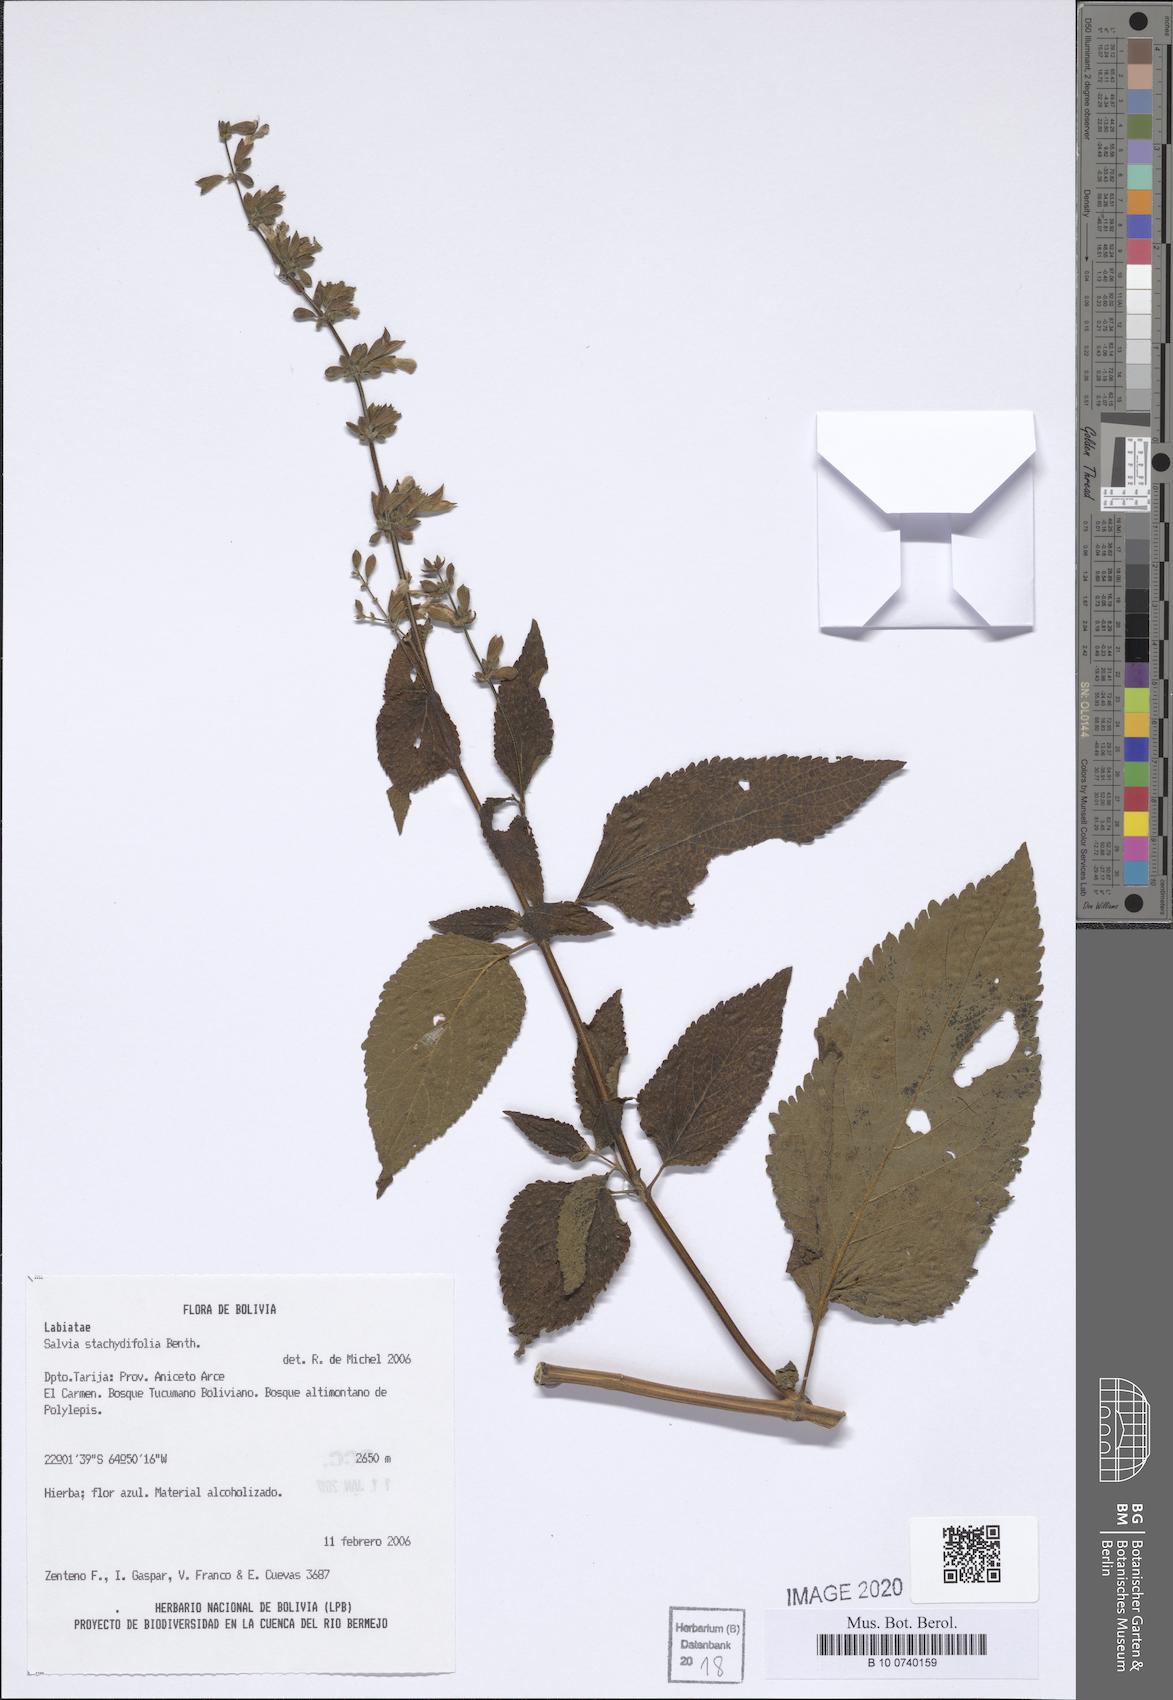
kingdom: Plantae
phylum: Tracheophyta
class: Magnoliopsida
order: Lamiales
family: Lamiaceae
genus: Salvia
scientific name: Salvia stachydifolia
